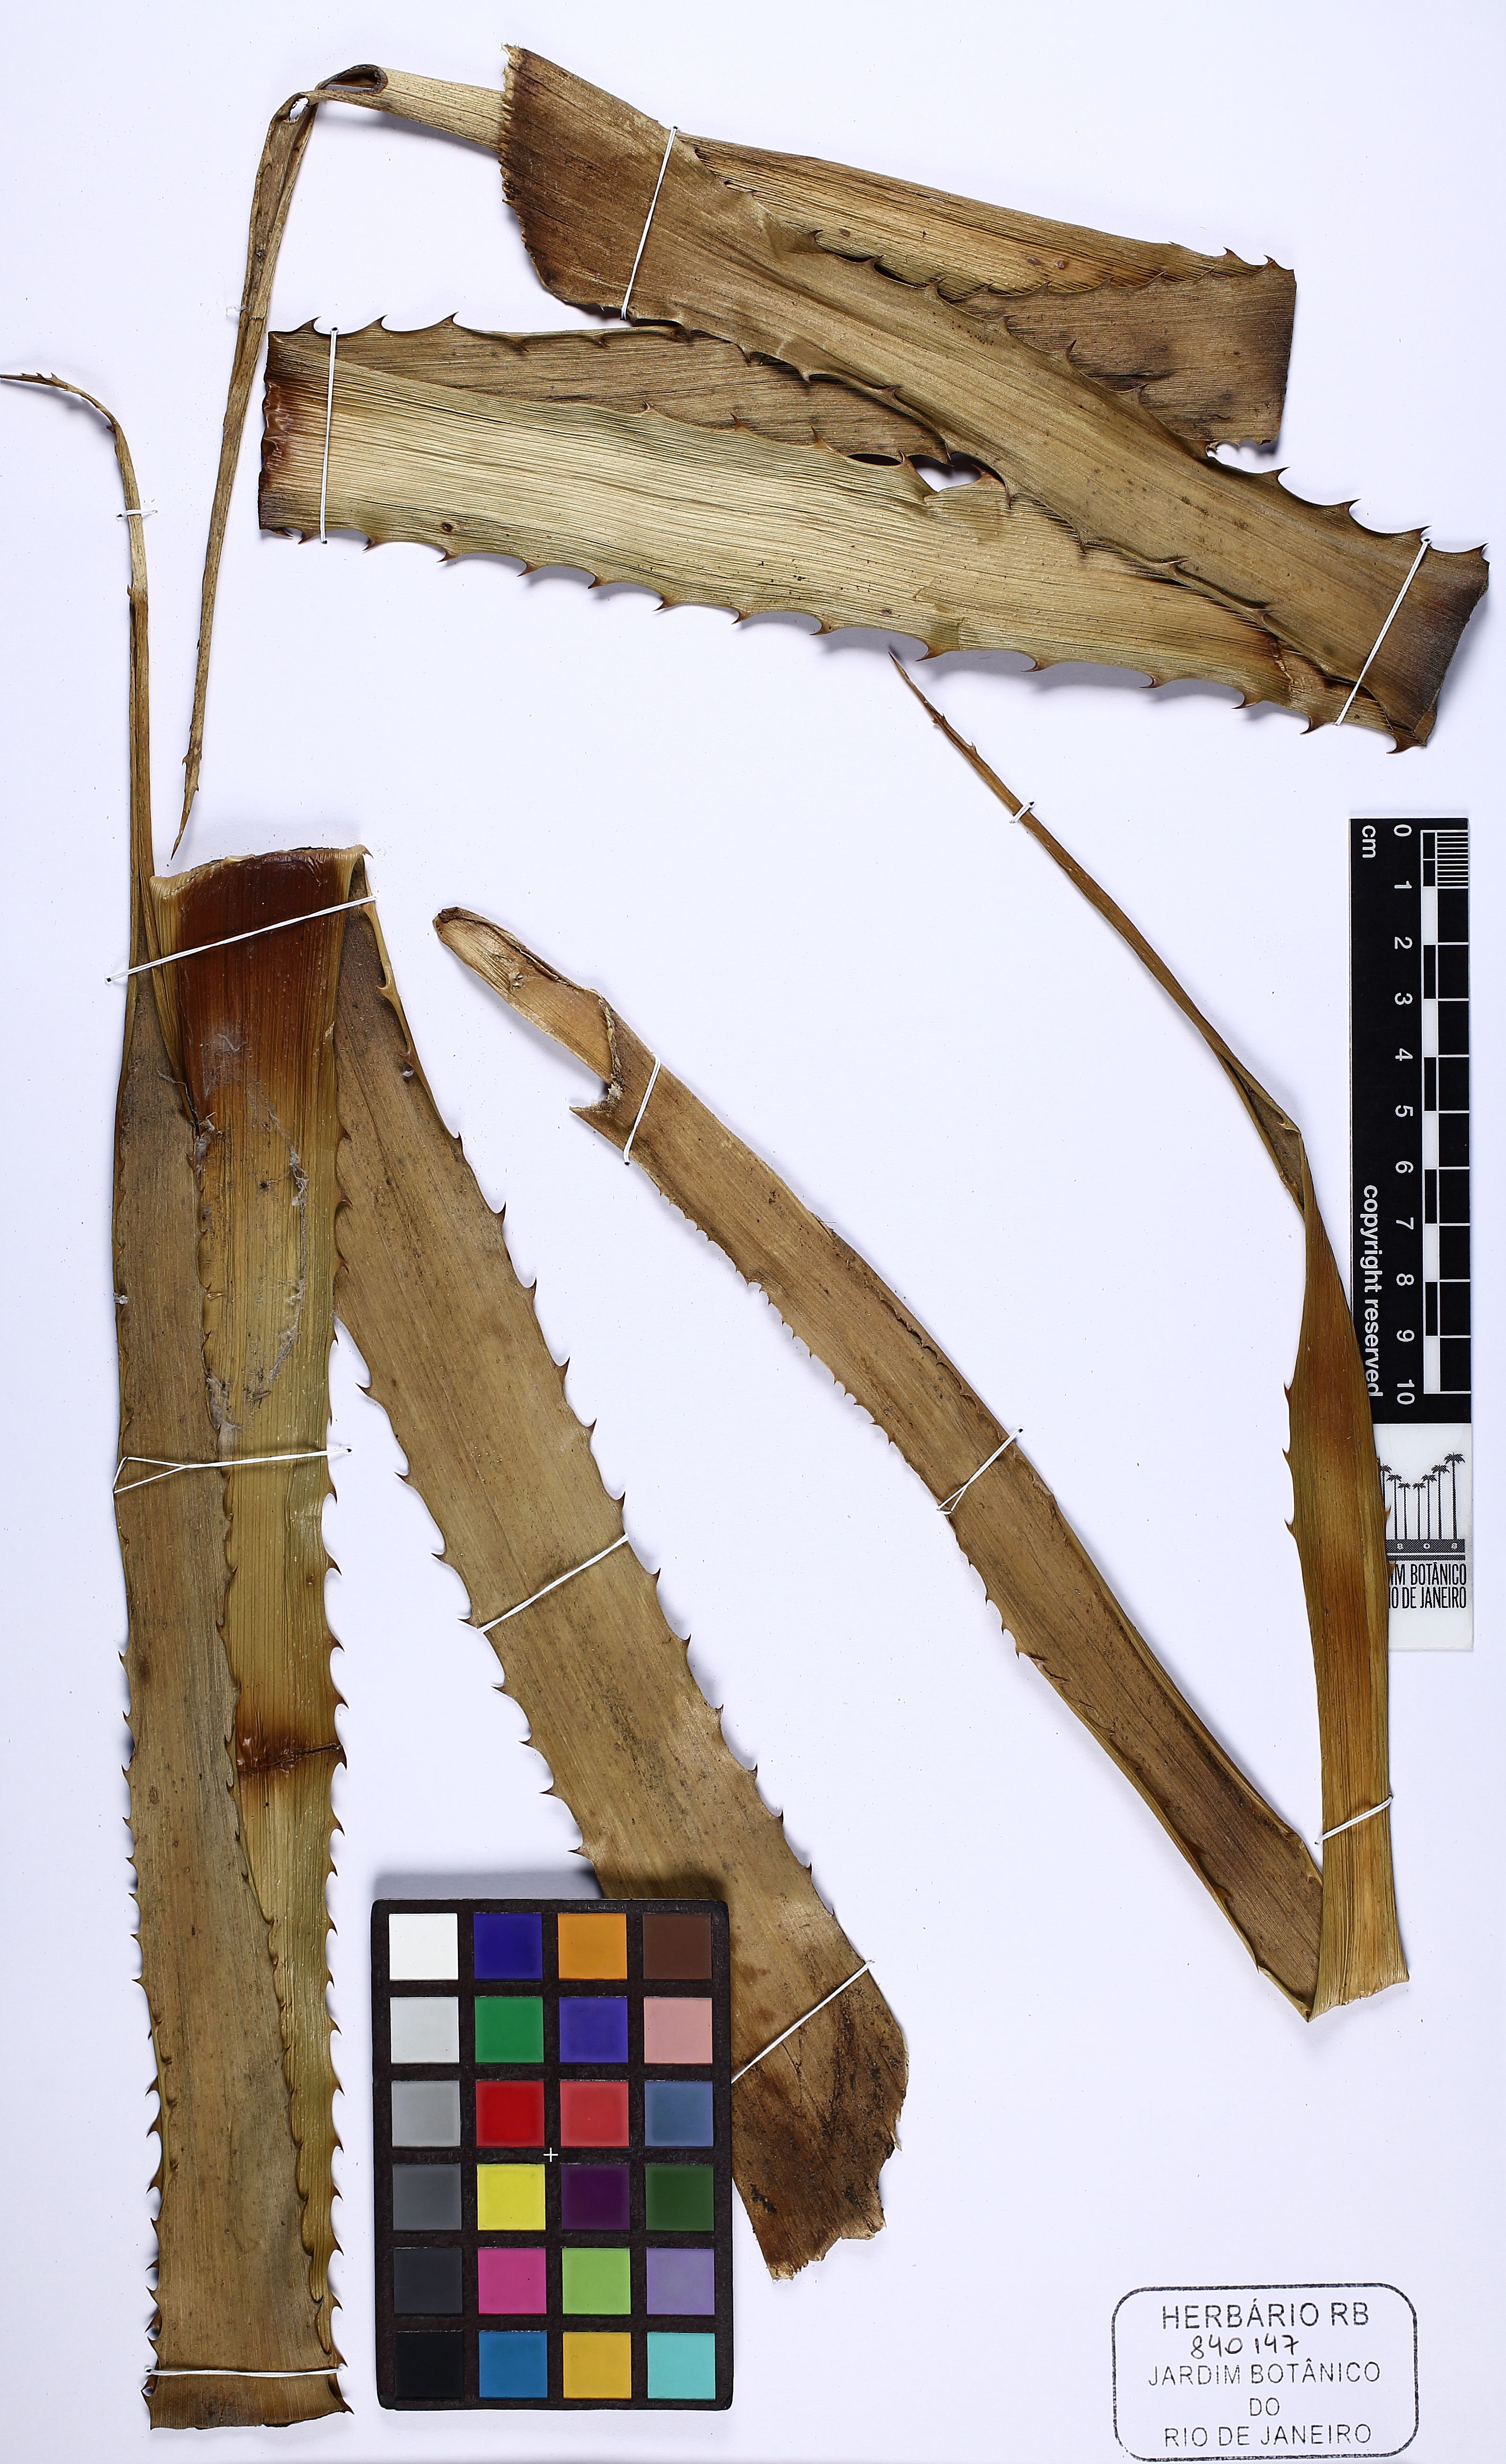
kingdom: Plantae
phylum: Tracheophyta
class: Liliopsida
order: Poales
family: Bromeliaceae
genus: Ananas
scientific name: Ananas comosus
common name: Pineapple
